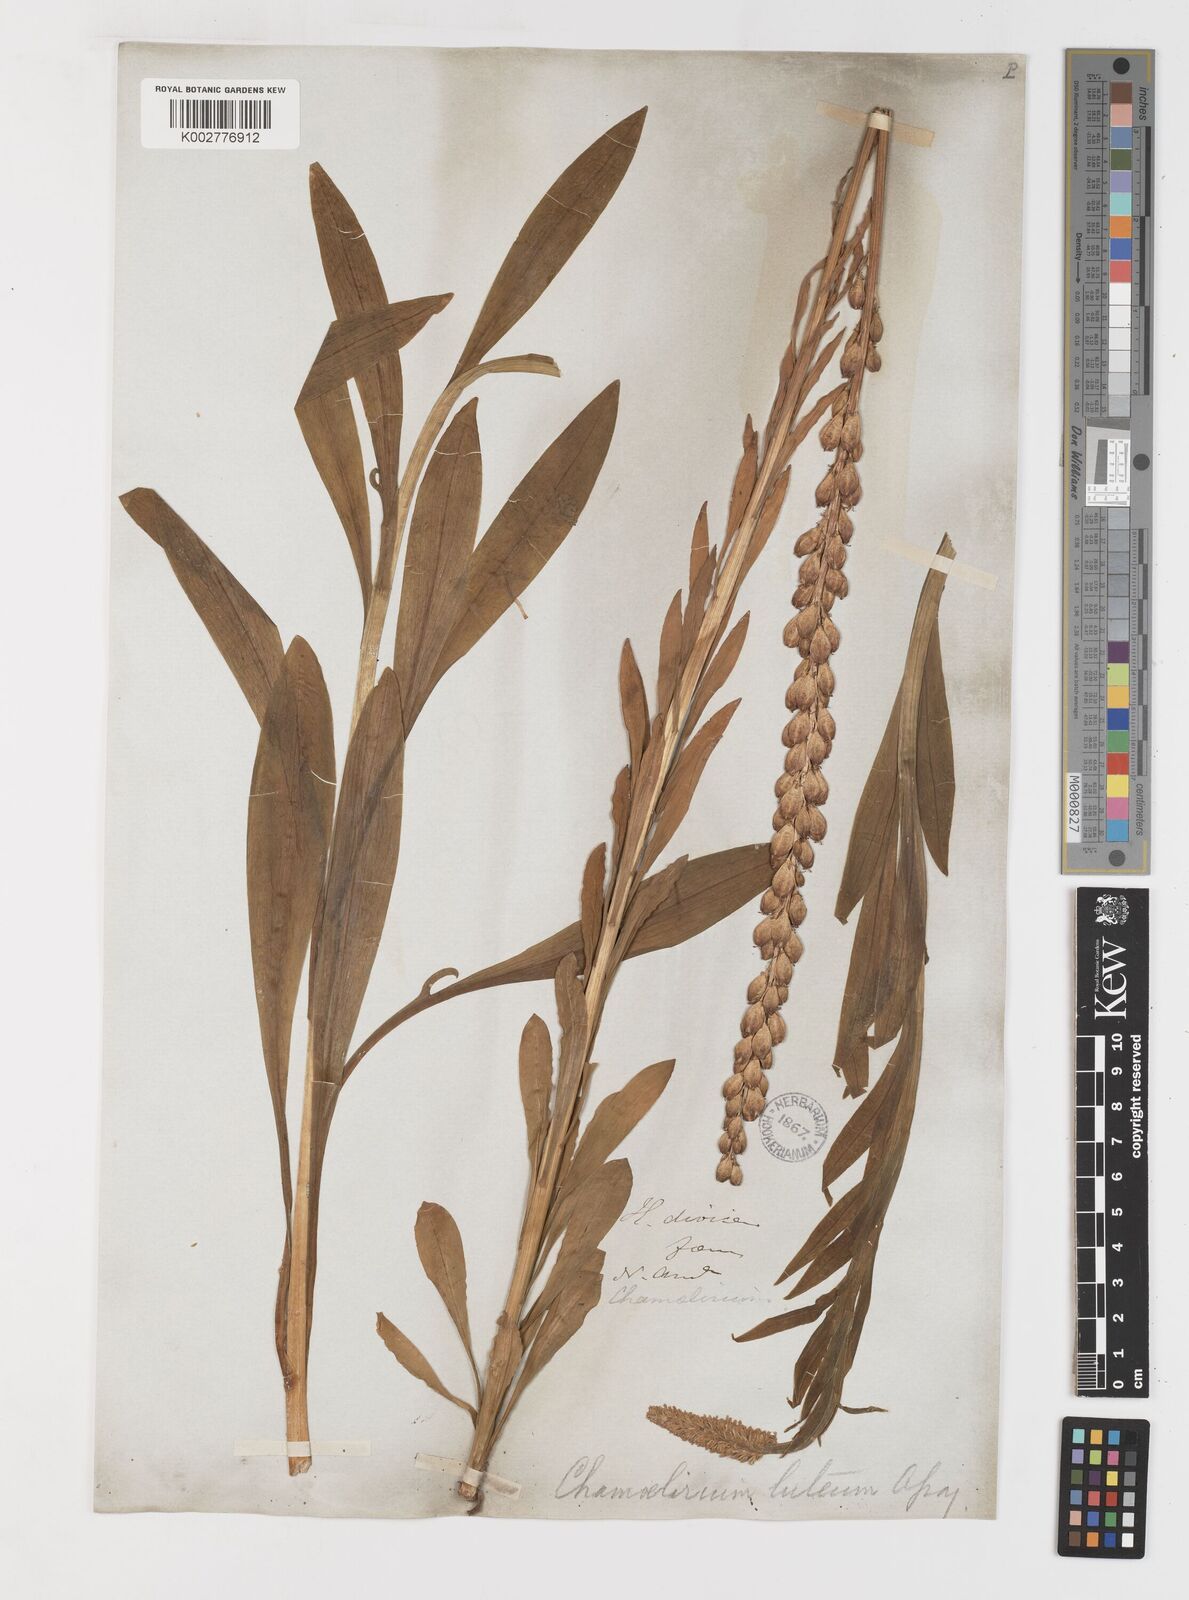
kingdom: Plantae
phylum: Tracheophyta
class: Liliopsida
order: Liliales
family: Melanthiaceae
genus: Chamaelirium
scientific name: Chamaelirium luteum
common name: Fairy-wand
